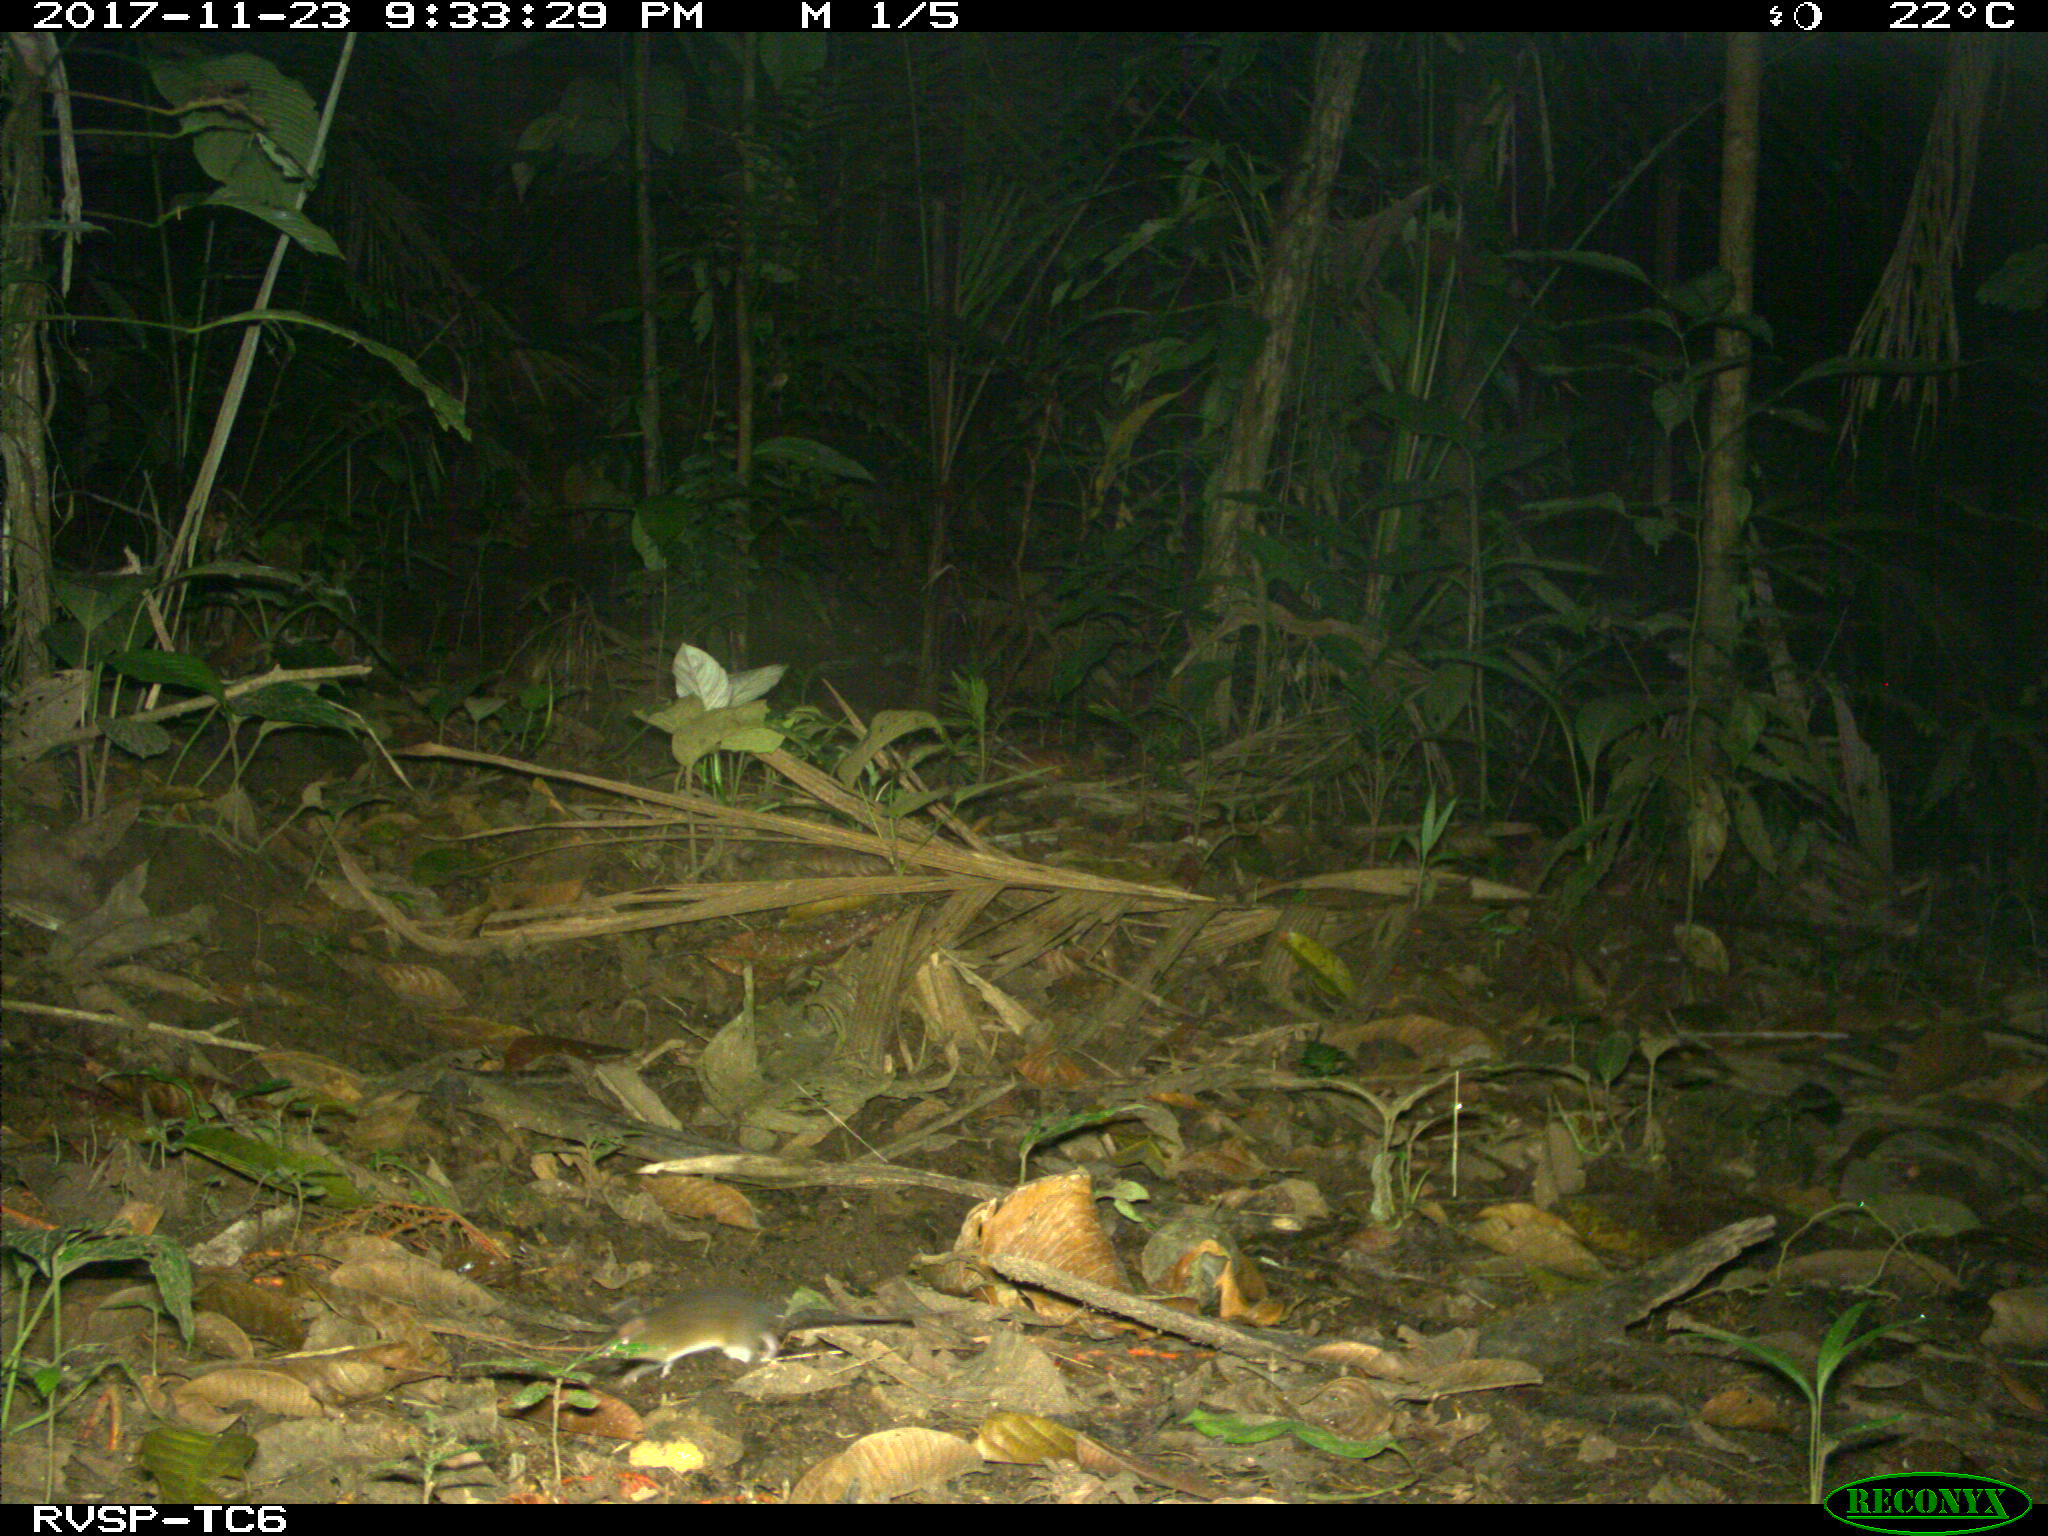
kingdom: Animalia
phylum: Chordata
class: Mammalia
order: Rodentia
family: Echimyidae
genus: Proechimys
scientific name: Proechimys
